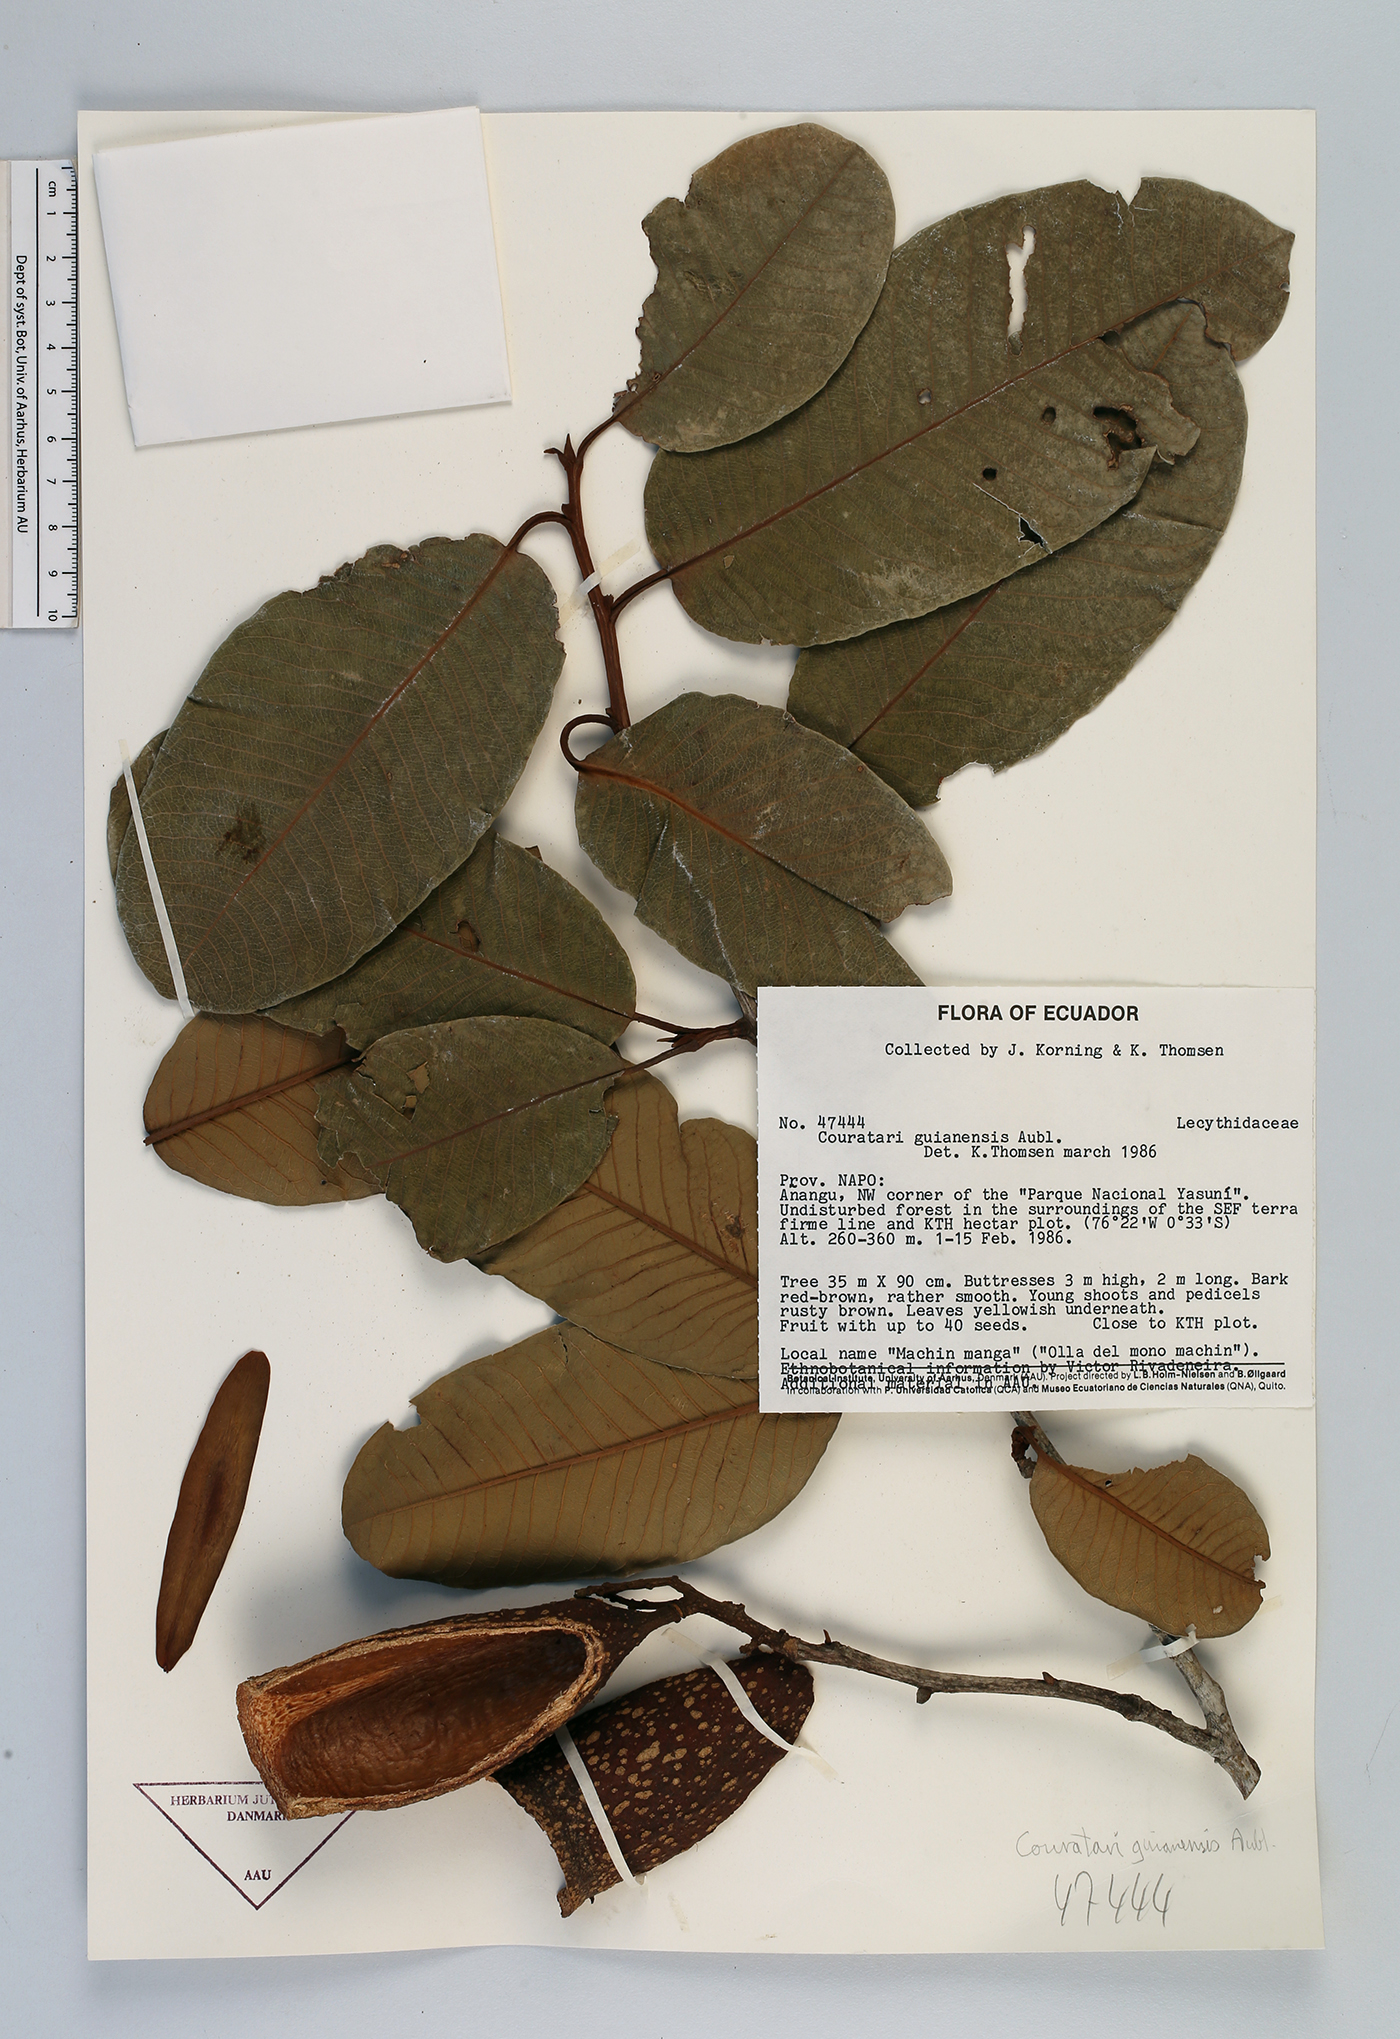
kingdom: Plantae
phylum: Tracheophyta
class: Magnoliopsida
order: Ericales
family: Lecythidaceae
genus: Couratari
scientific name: Couratari guianensis
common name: Fine-leaf wadara
